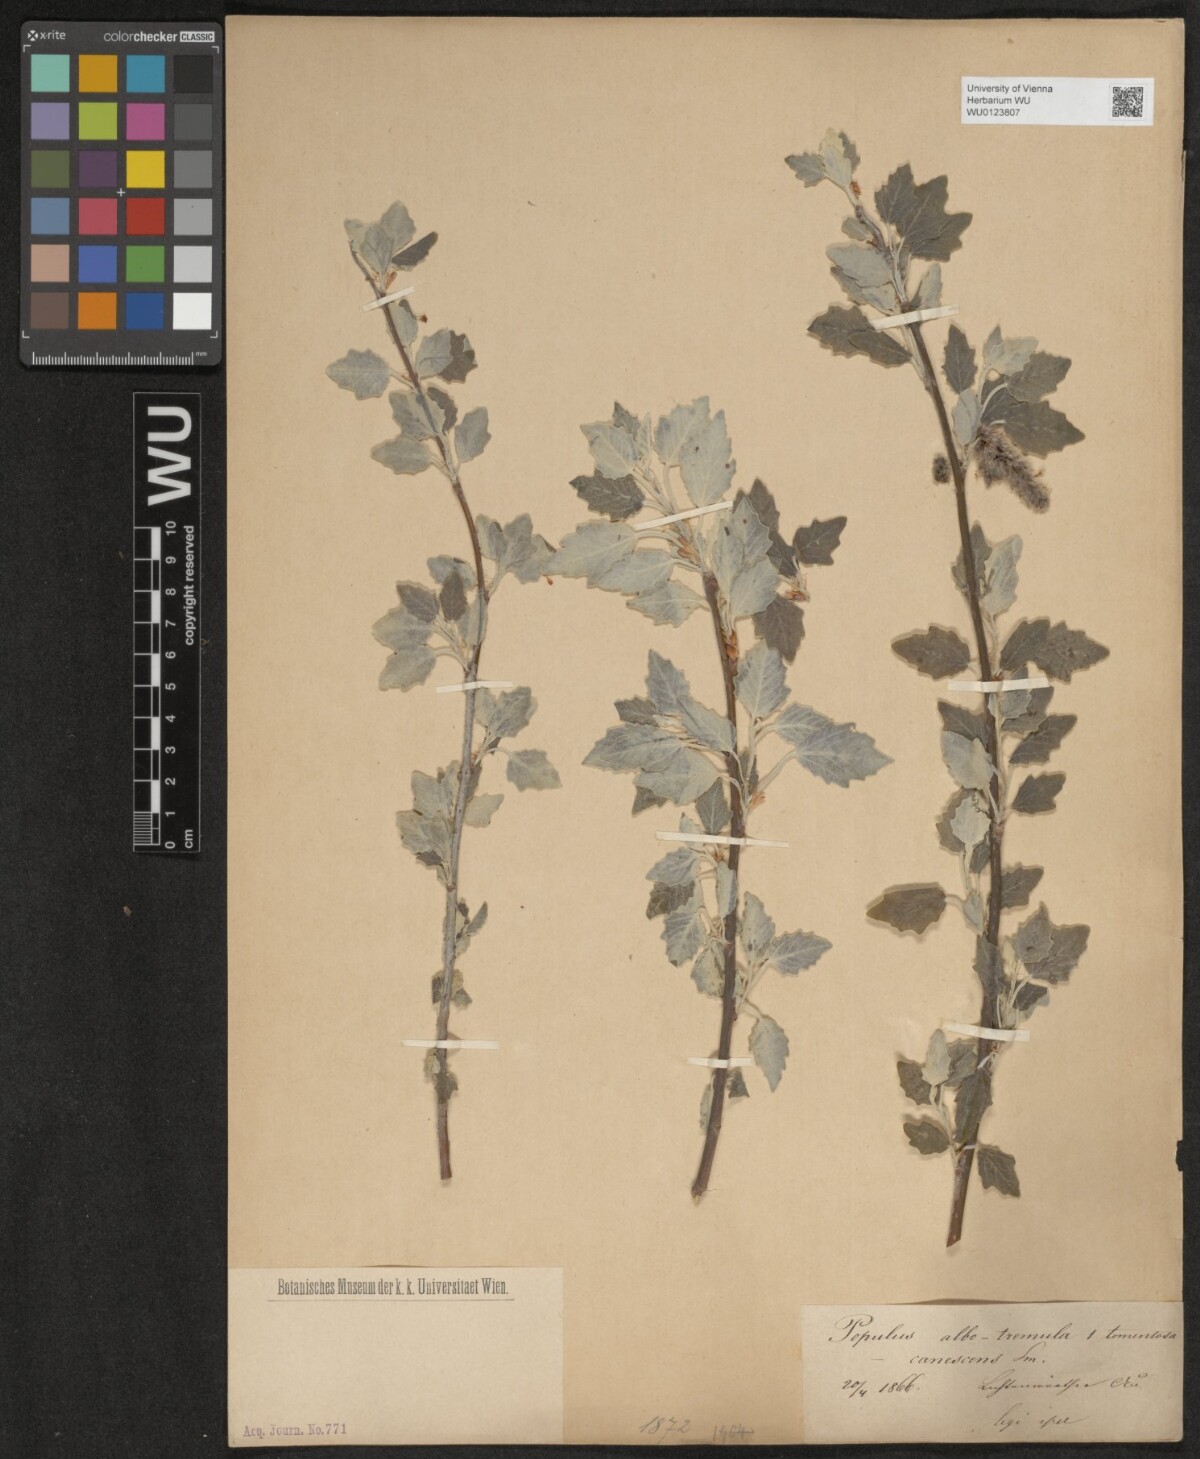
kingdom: Plantae
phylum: Tracheophyta
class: Magnoliopsida
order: Malpighiales
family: Salicaceae
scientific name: Salicaceae
